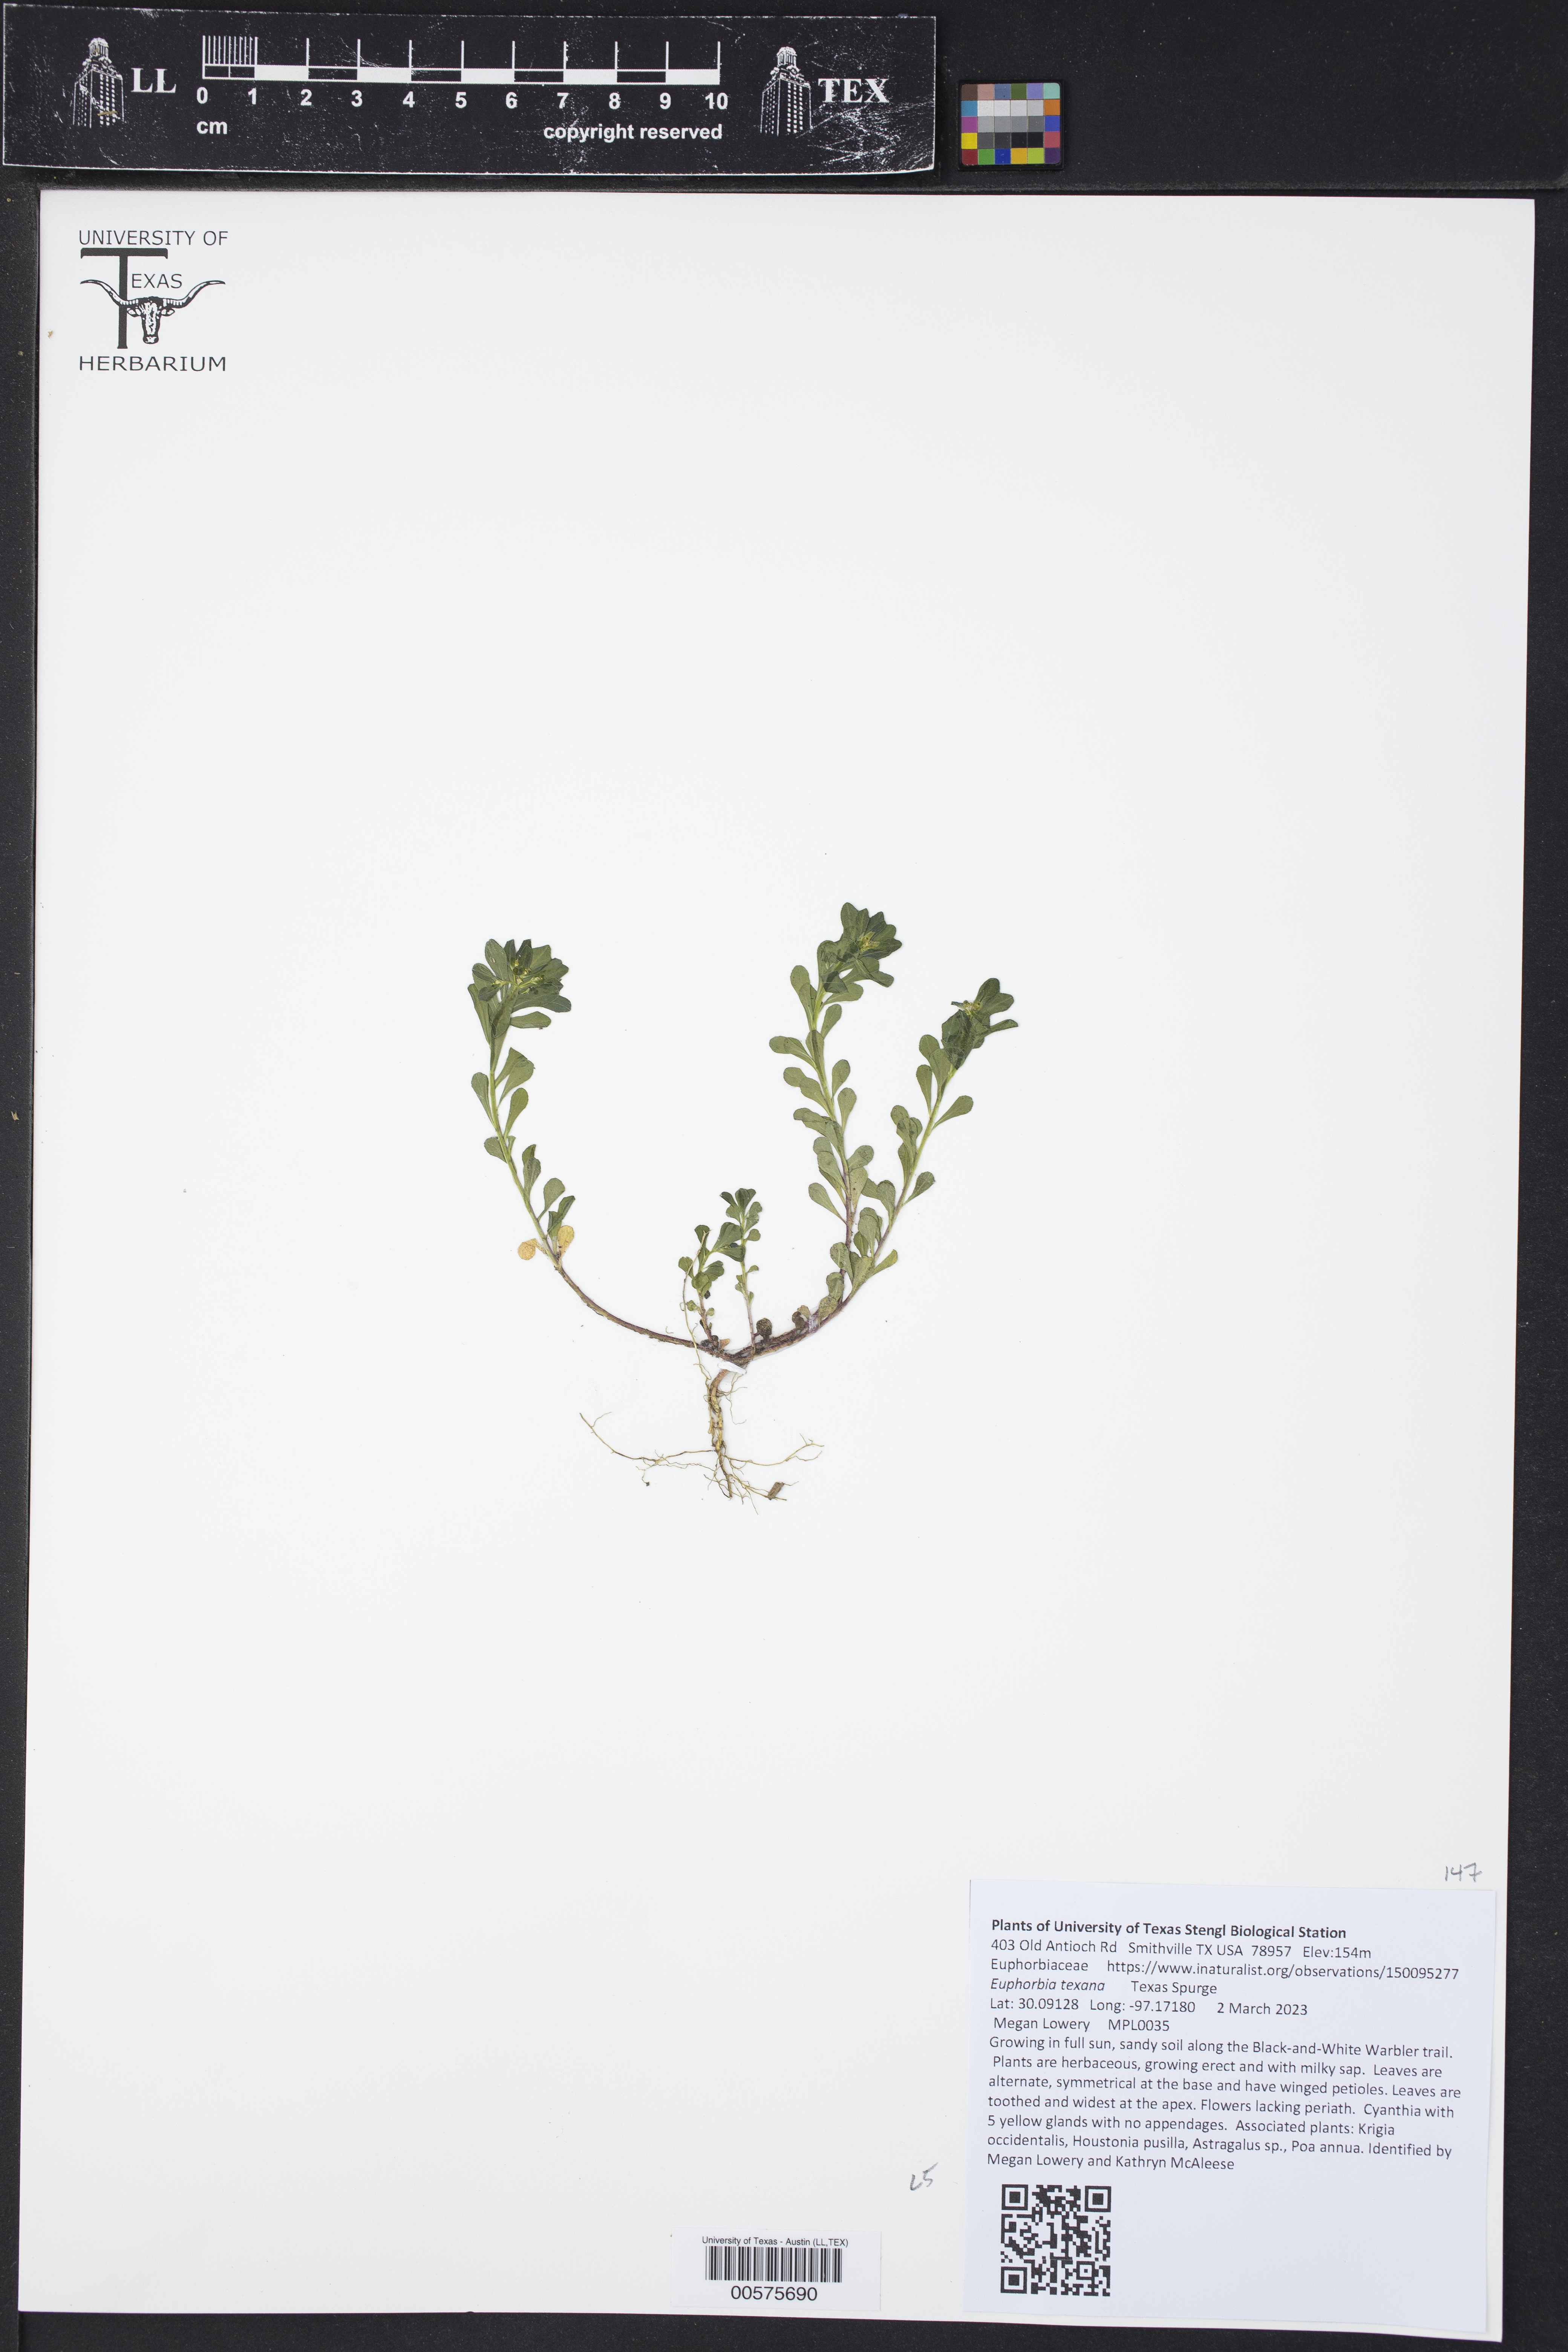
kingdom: Plantae
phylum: Tracheophyta
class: Magnoliopsida
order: Malpighiales
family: Euphorbiaceae
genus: Euphorbia
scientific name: Euphorbia texana
